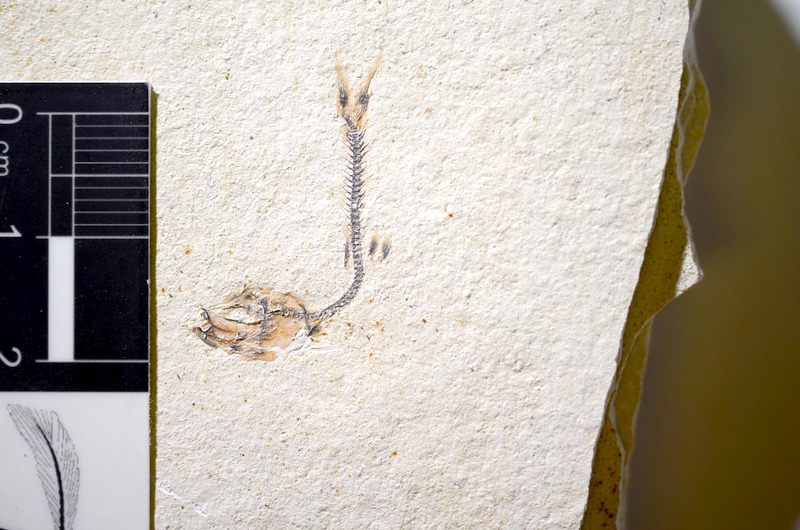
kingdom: Animalia
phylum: Chordata
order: Salmoniformes
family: Orthogonikleithridae
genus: Orthogonikleithrus
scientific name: Orthogonikleithrus hoelli
